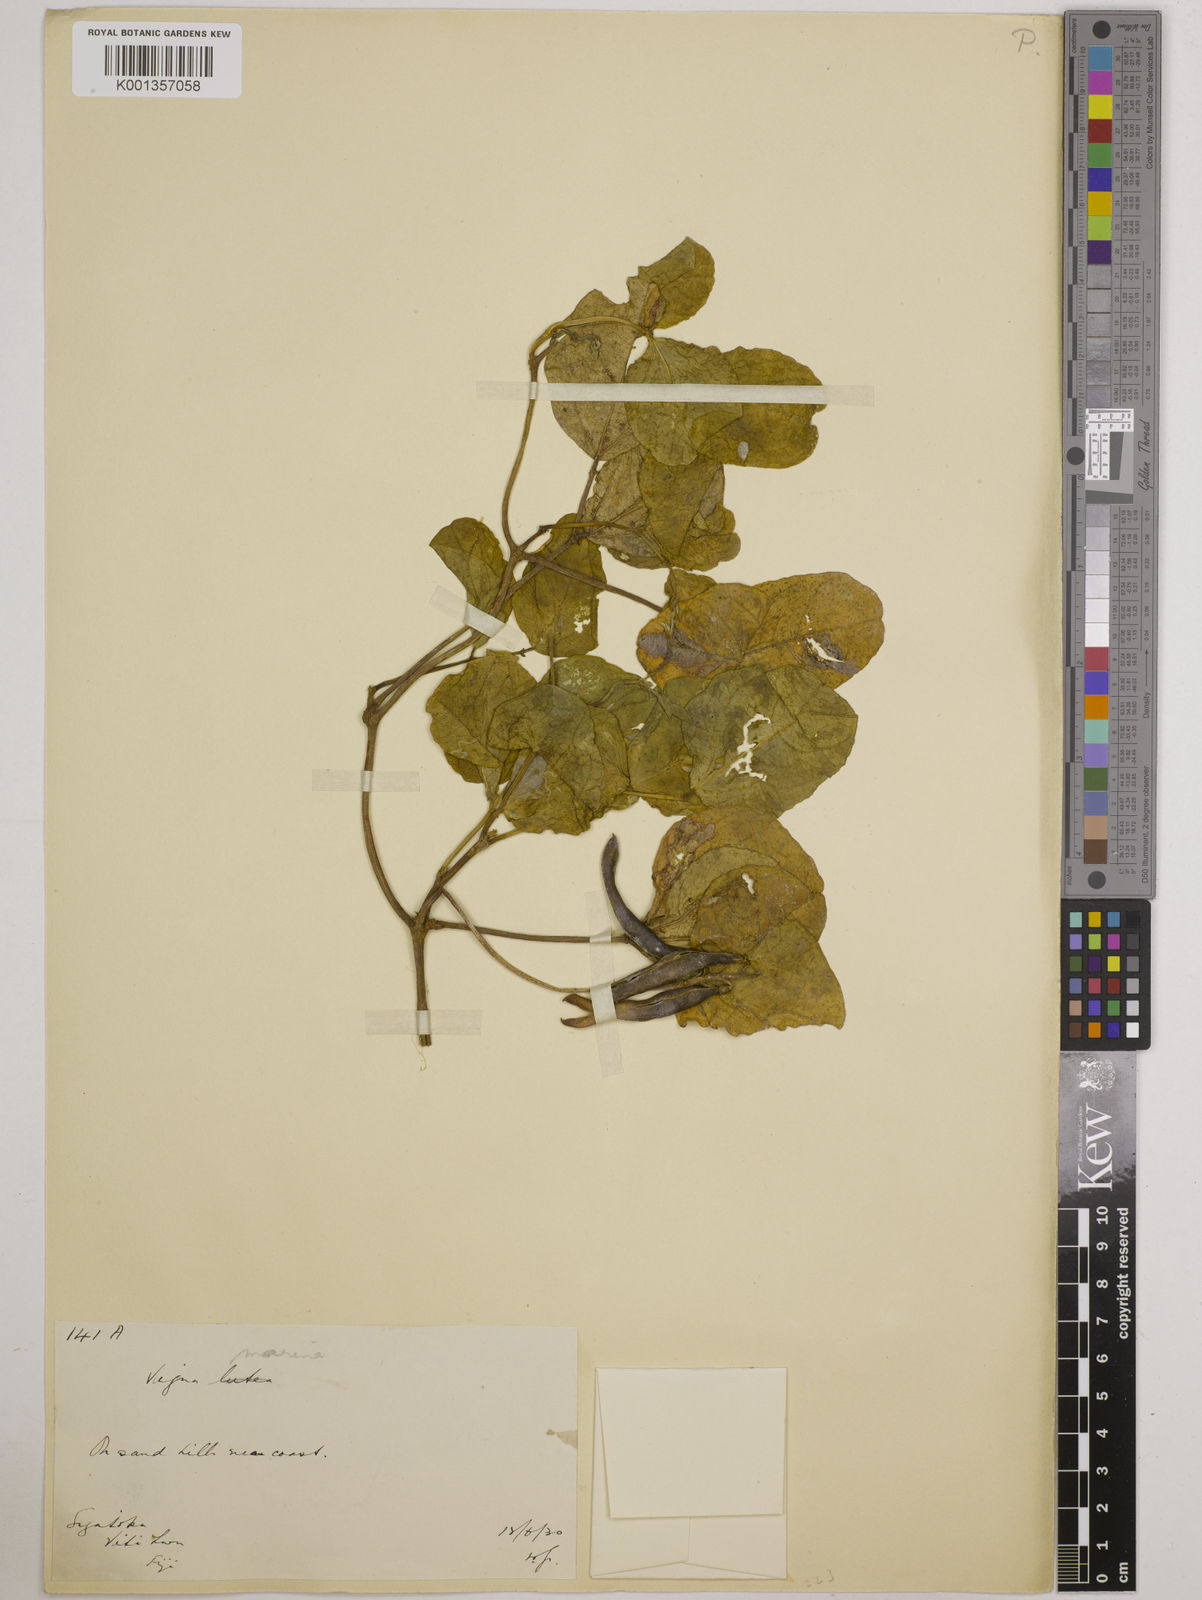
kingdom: Plantae
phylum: Tracheophyta
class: Magnoliopsida
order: Fabales
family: Fabaceae
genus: Vigna
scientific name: Vigna marina
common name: Dune-bean
